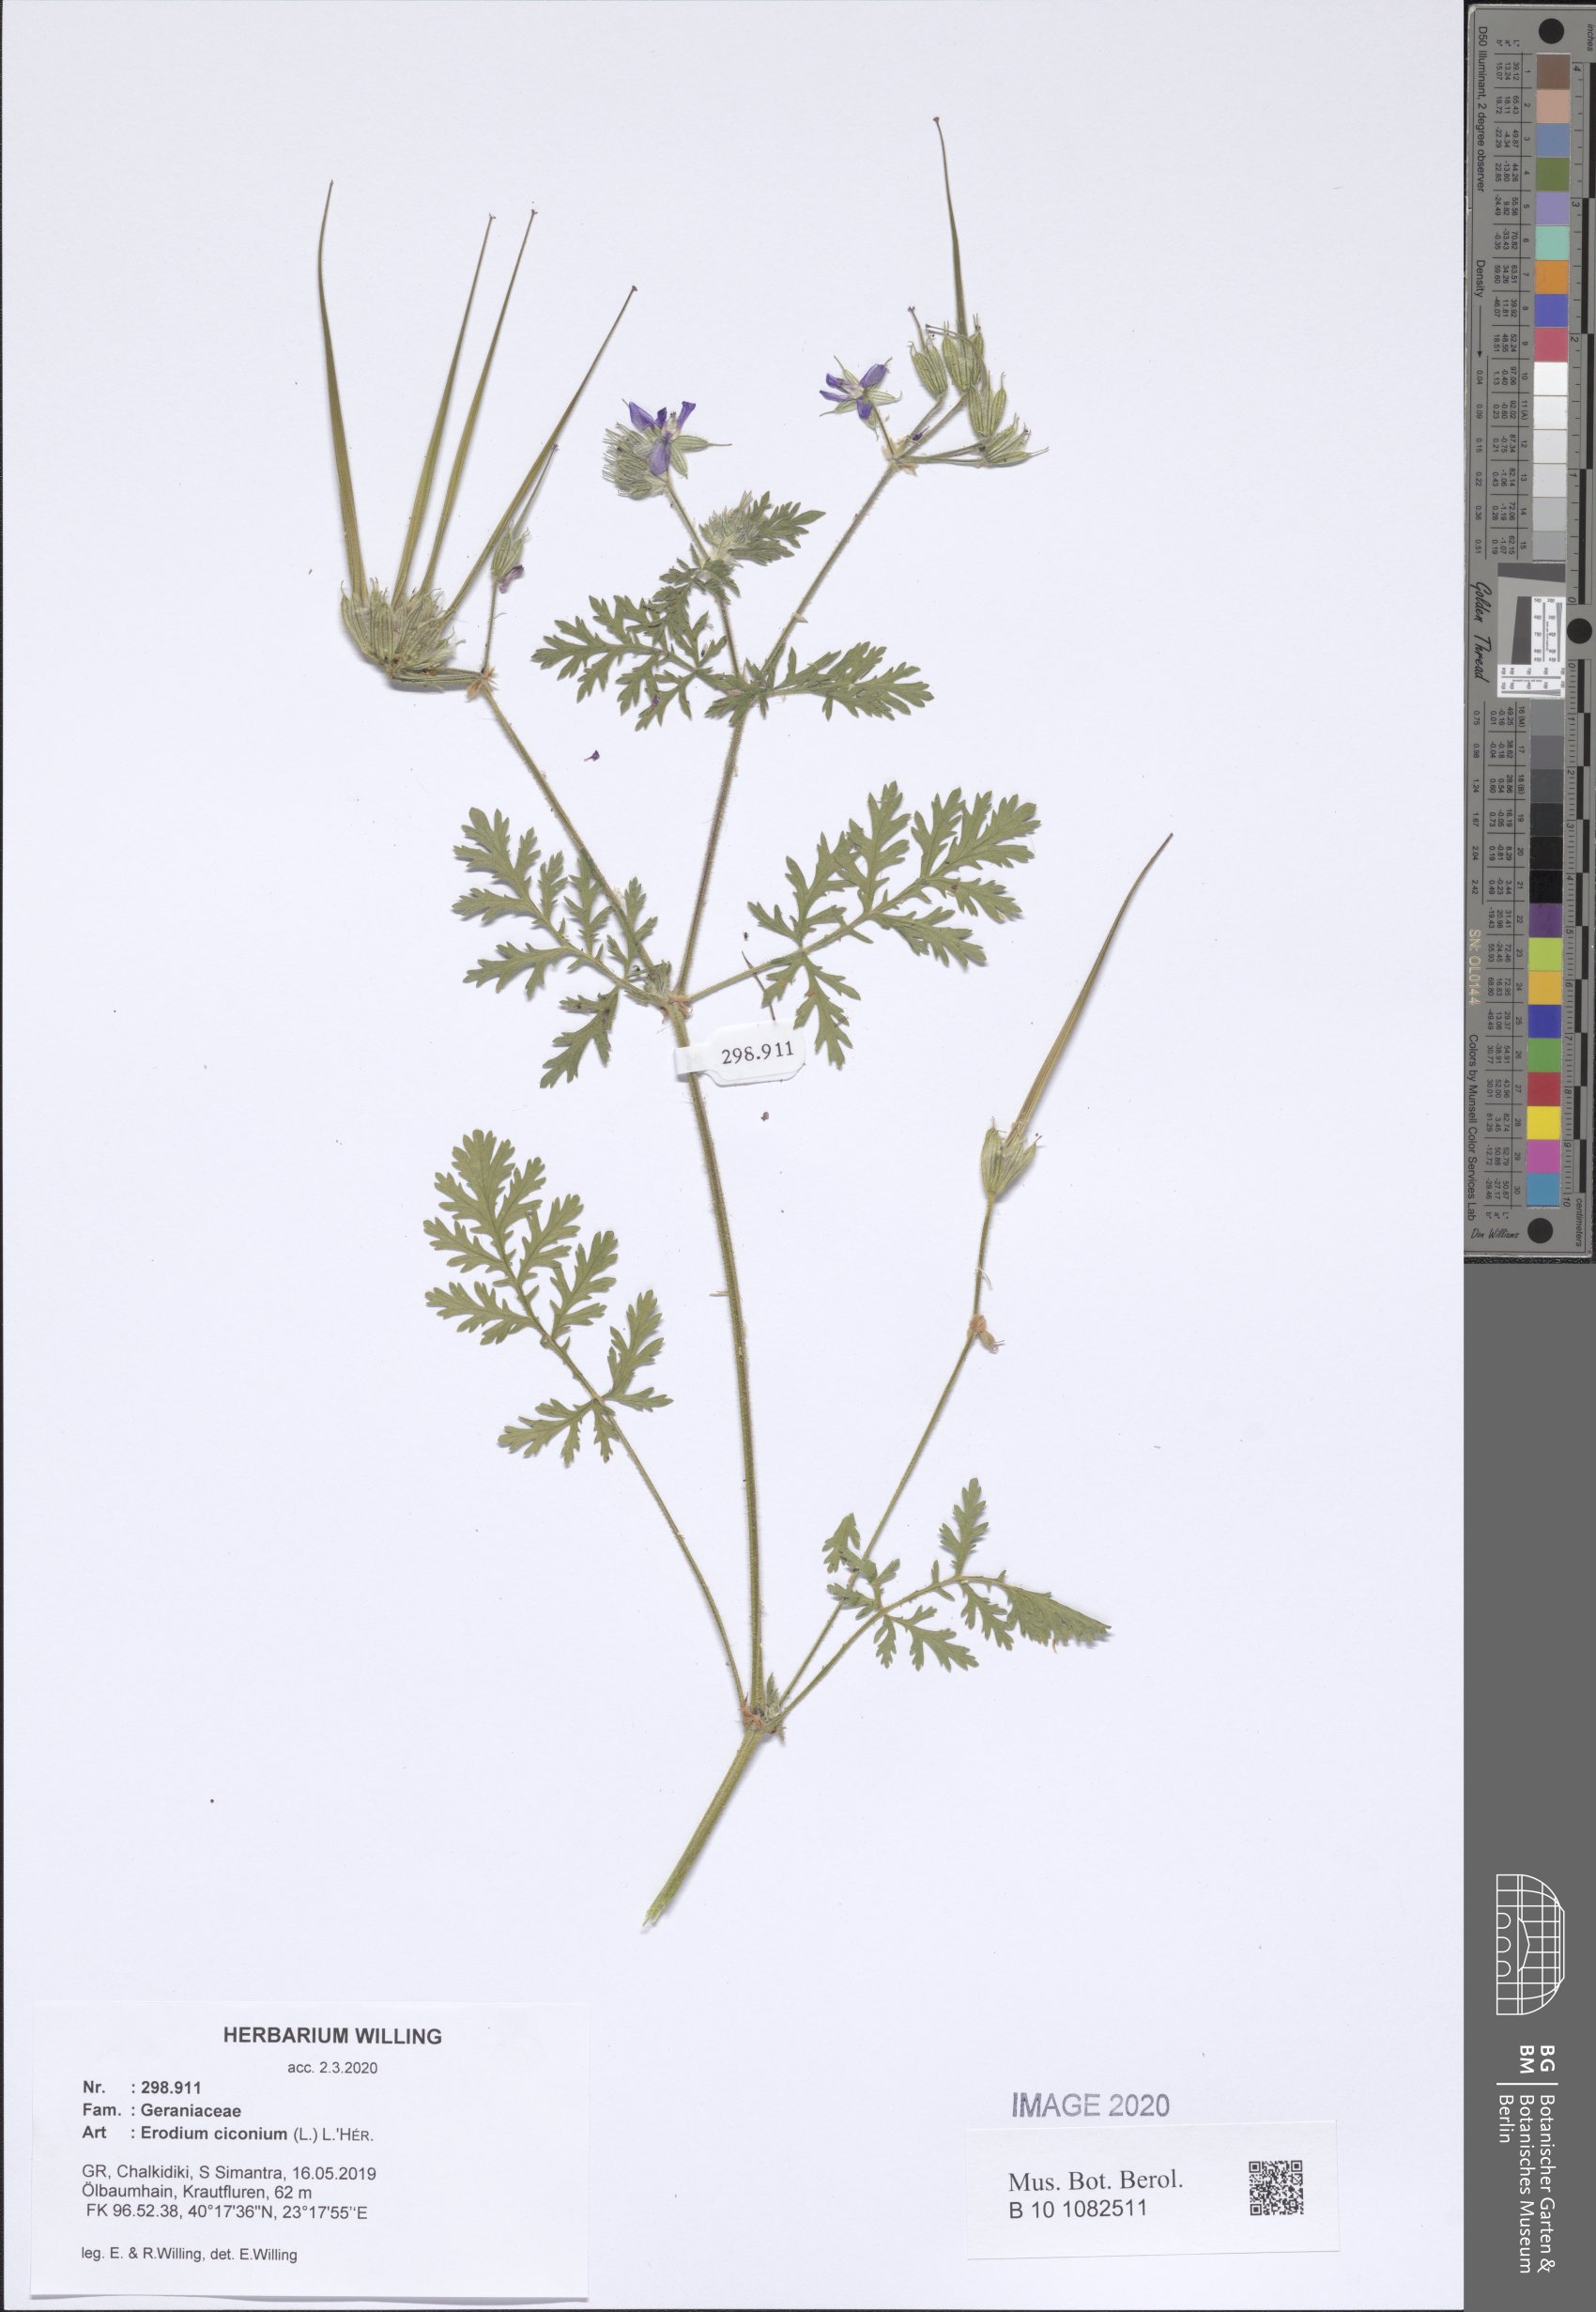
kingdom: Plantae
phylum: Tracheophyta
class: Magnoliopsida
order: Geraniales
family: Geraniaceae
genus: Erodium
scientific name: Erodium ciconium
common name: Common stork's bill
